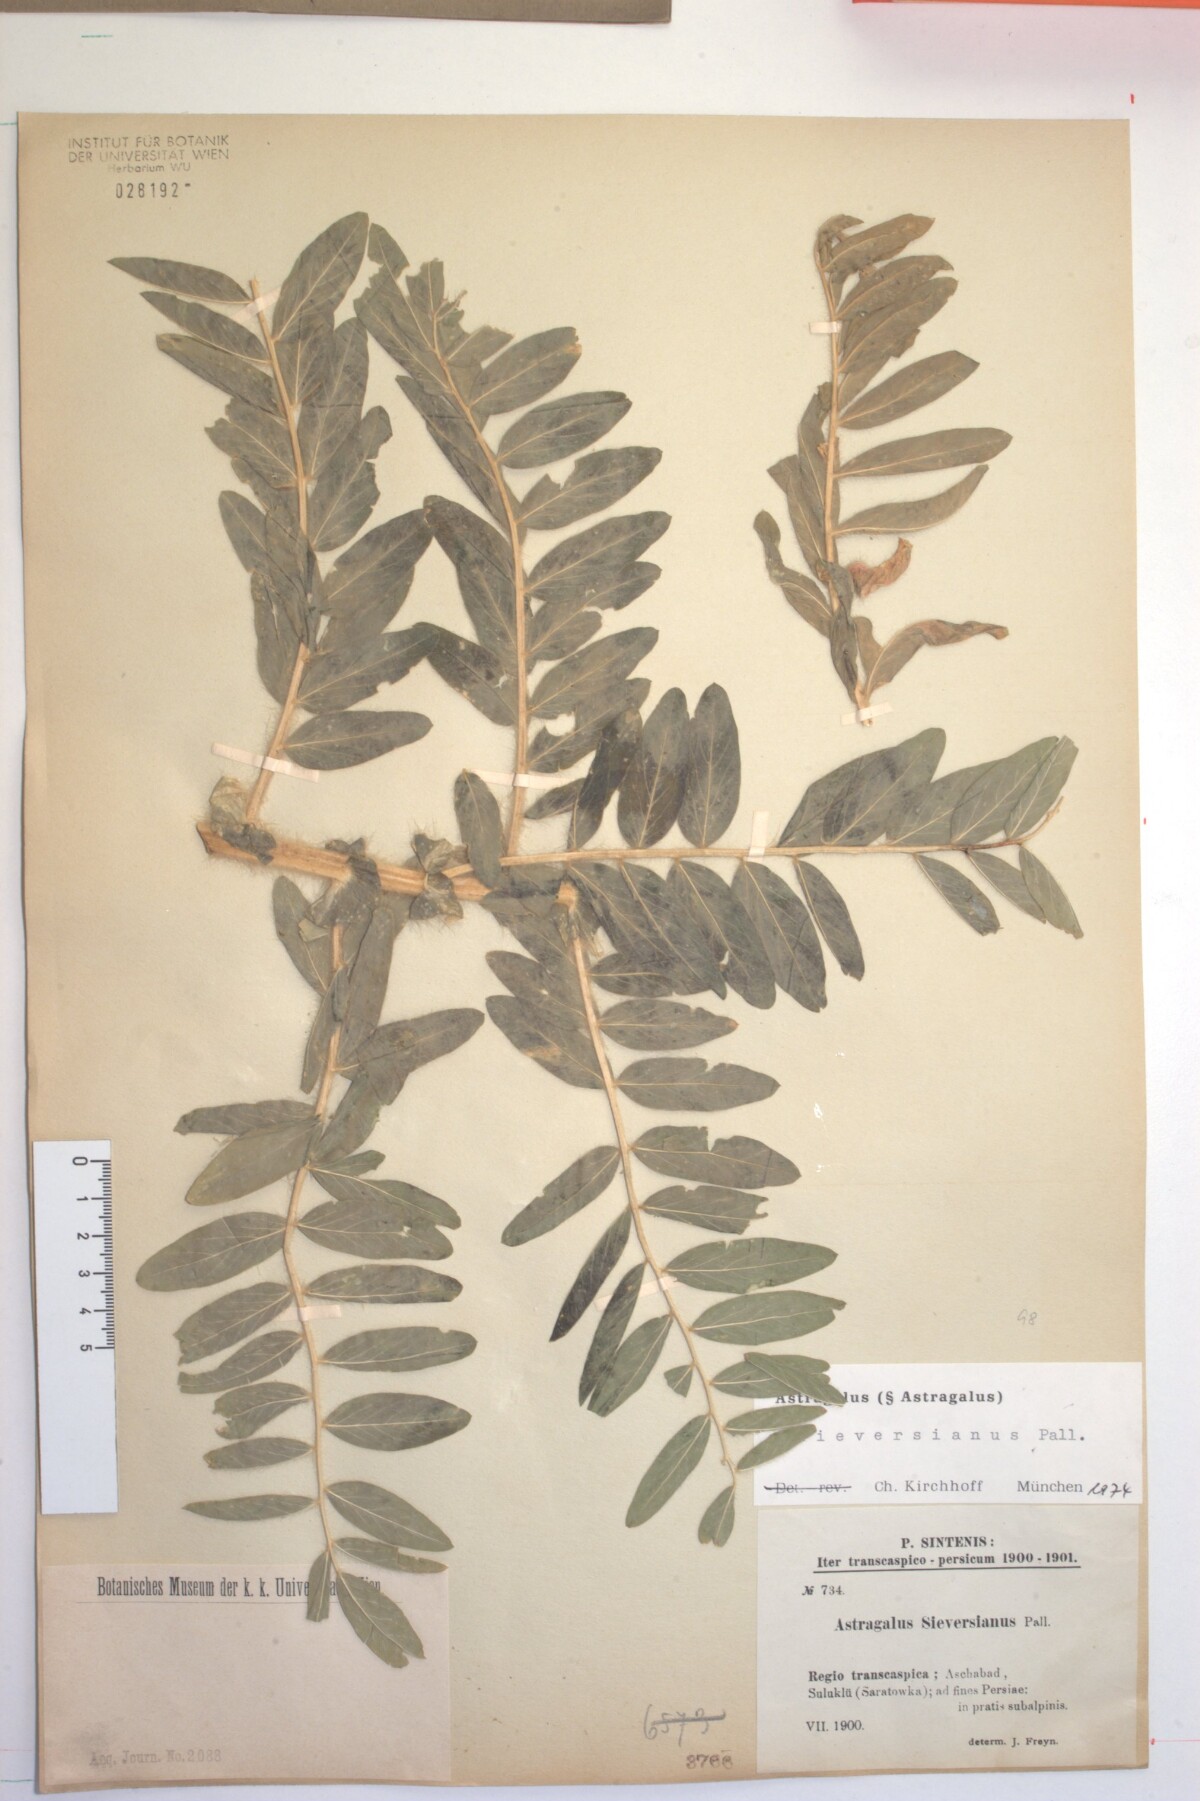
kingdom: Plantae
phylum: Tracheophyta
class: Magnoliopsida
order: Fabales
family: Fabaceae
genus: Astragalus
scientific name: Astragalus sieversianus
